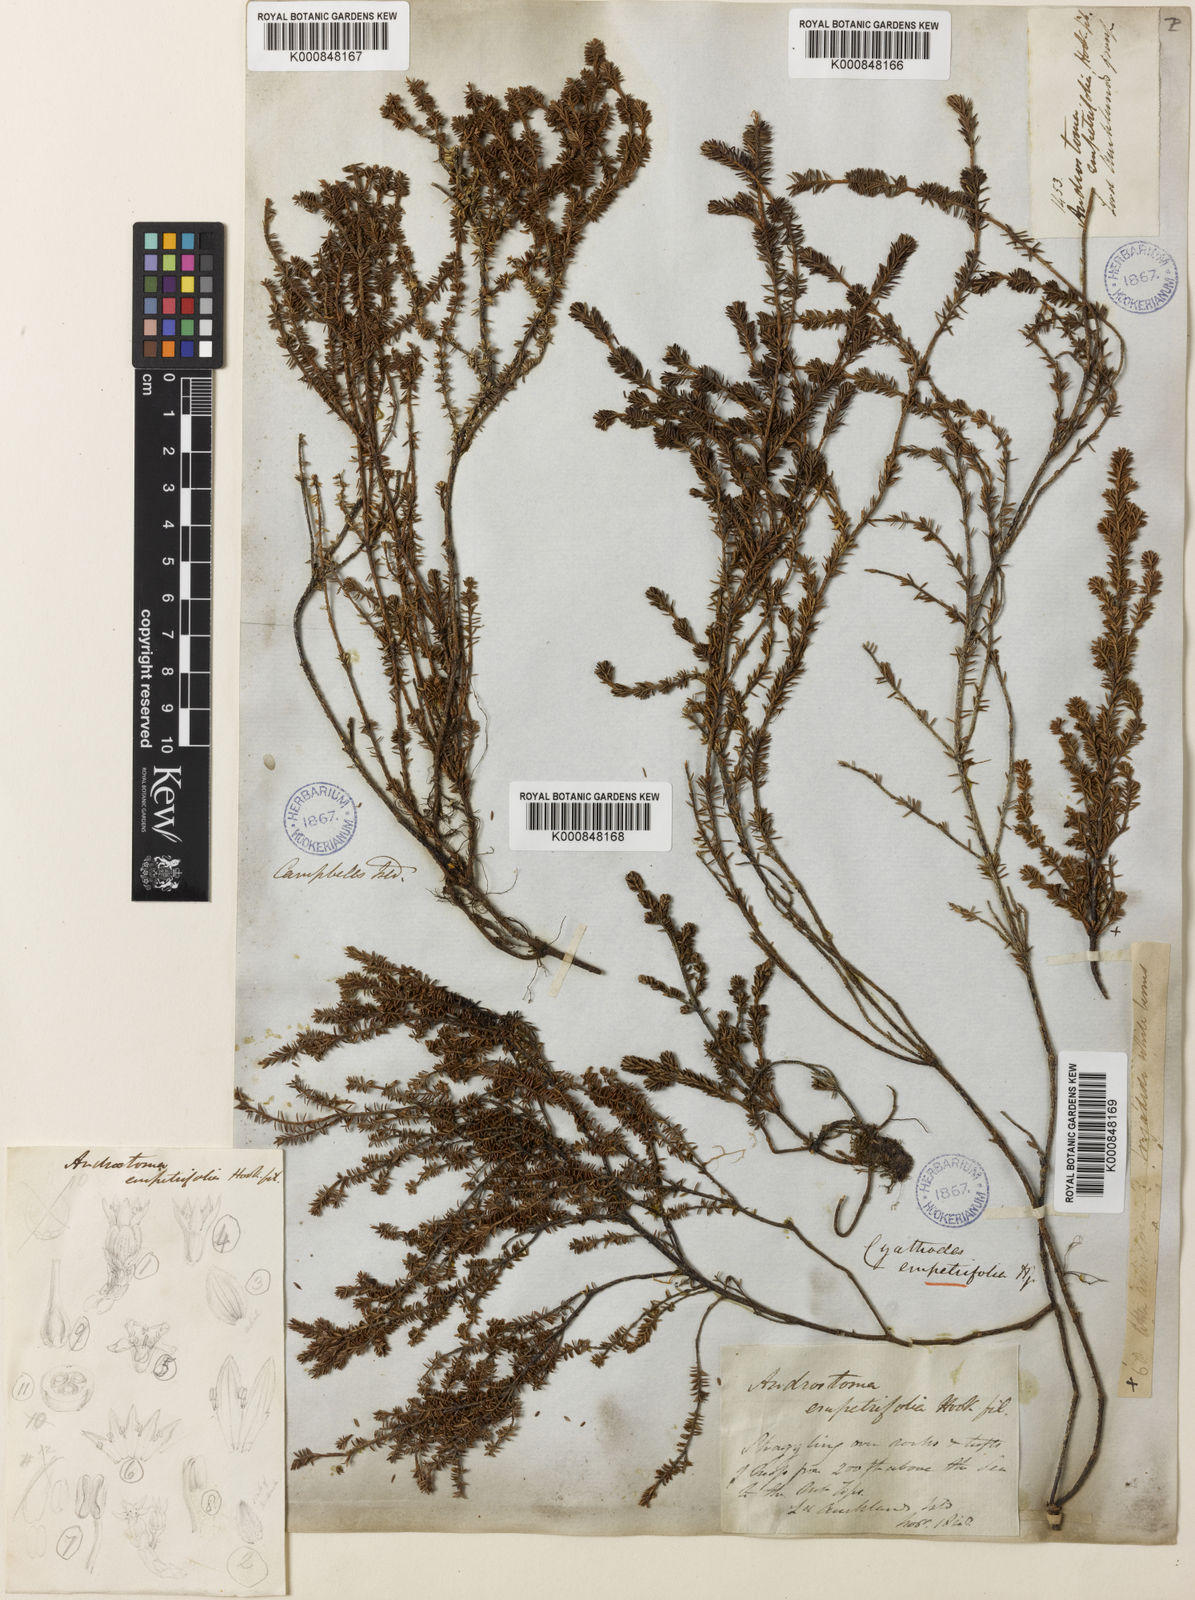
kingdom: Plantae
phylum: Tracheophyta
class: Magnoliopsida
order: Ericales
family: Ericaceae
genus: Androstoma
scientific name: Androstoma empetrifolia
